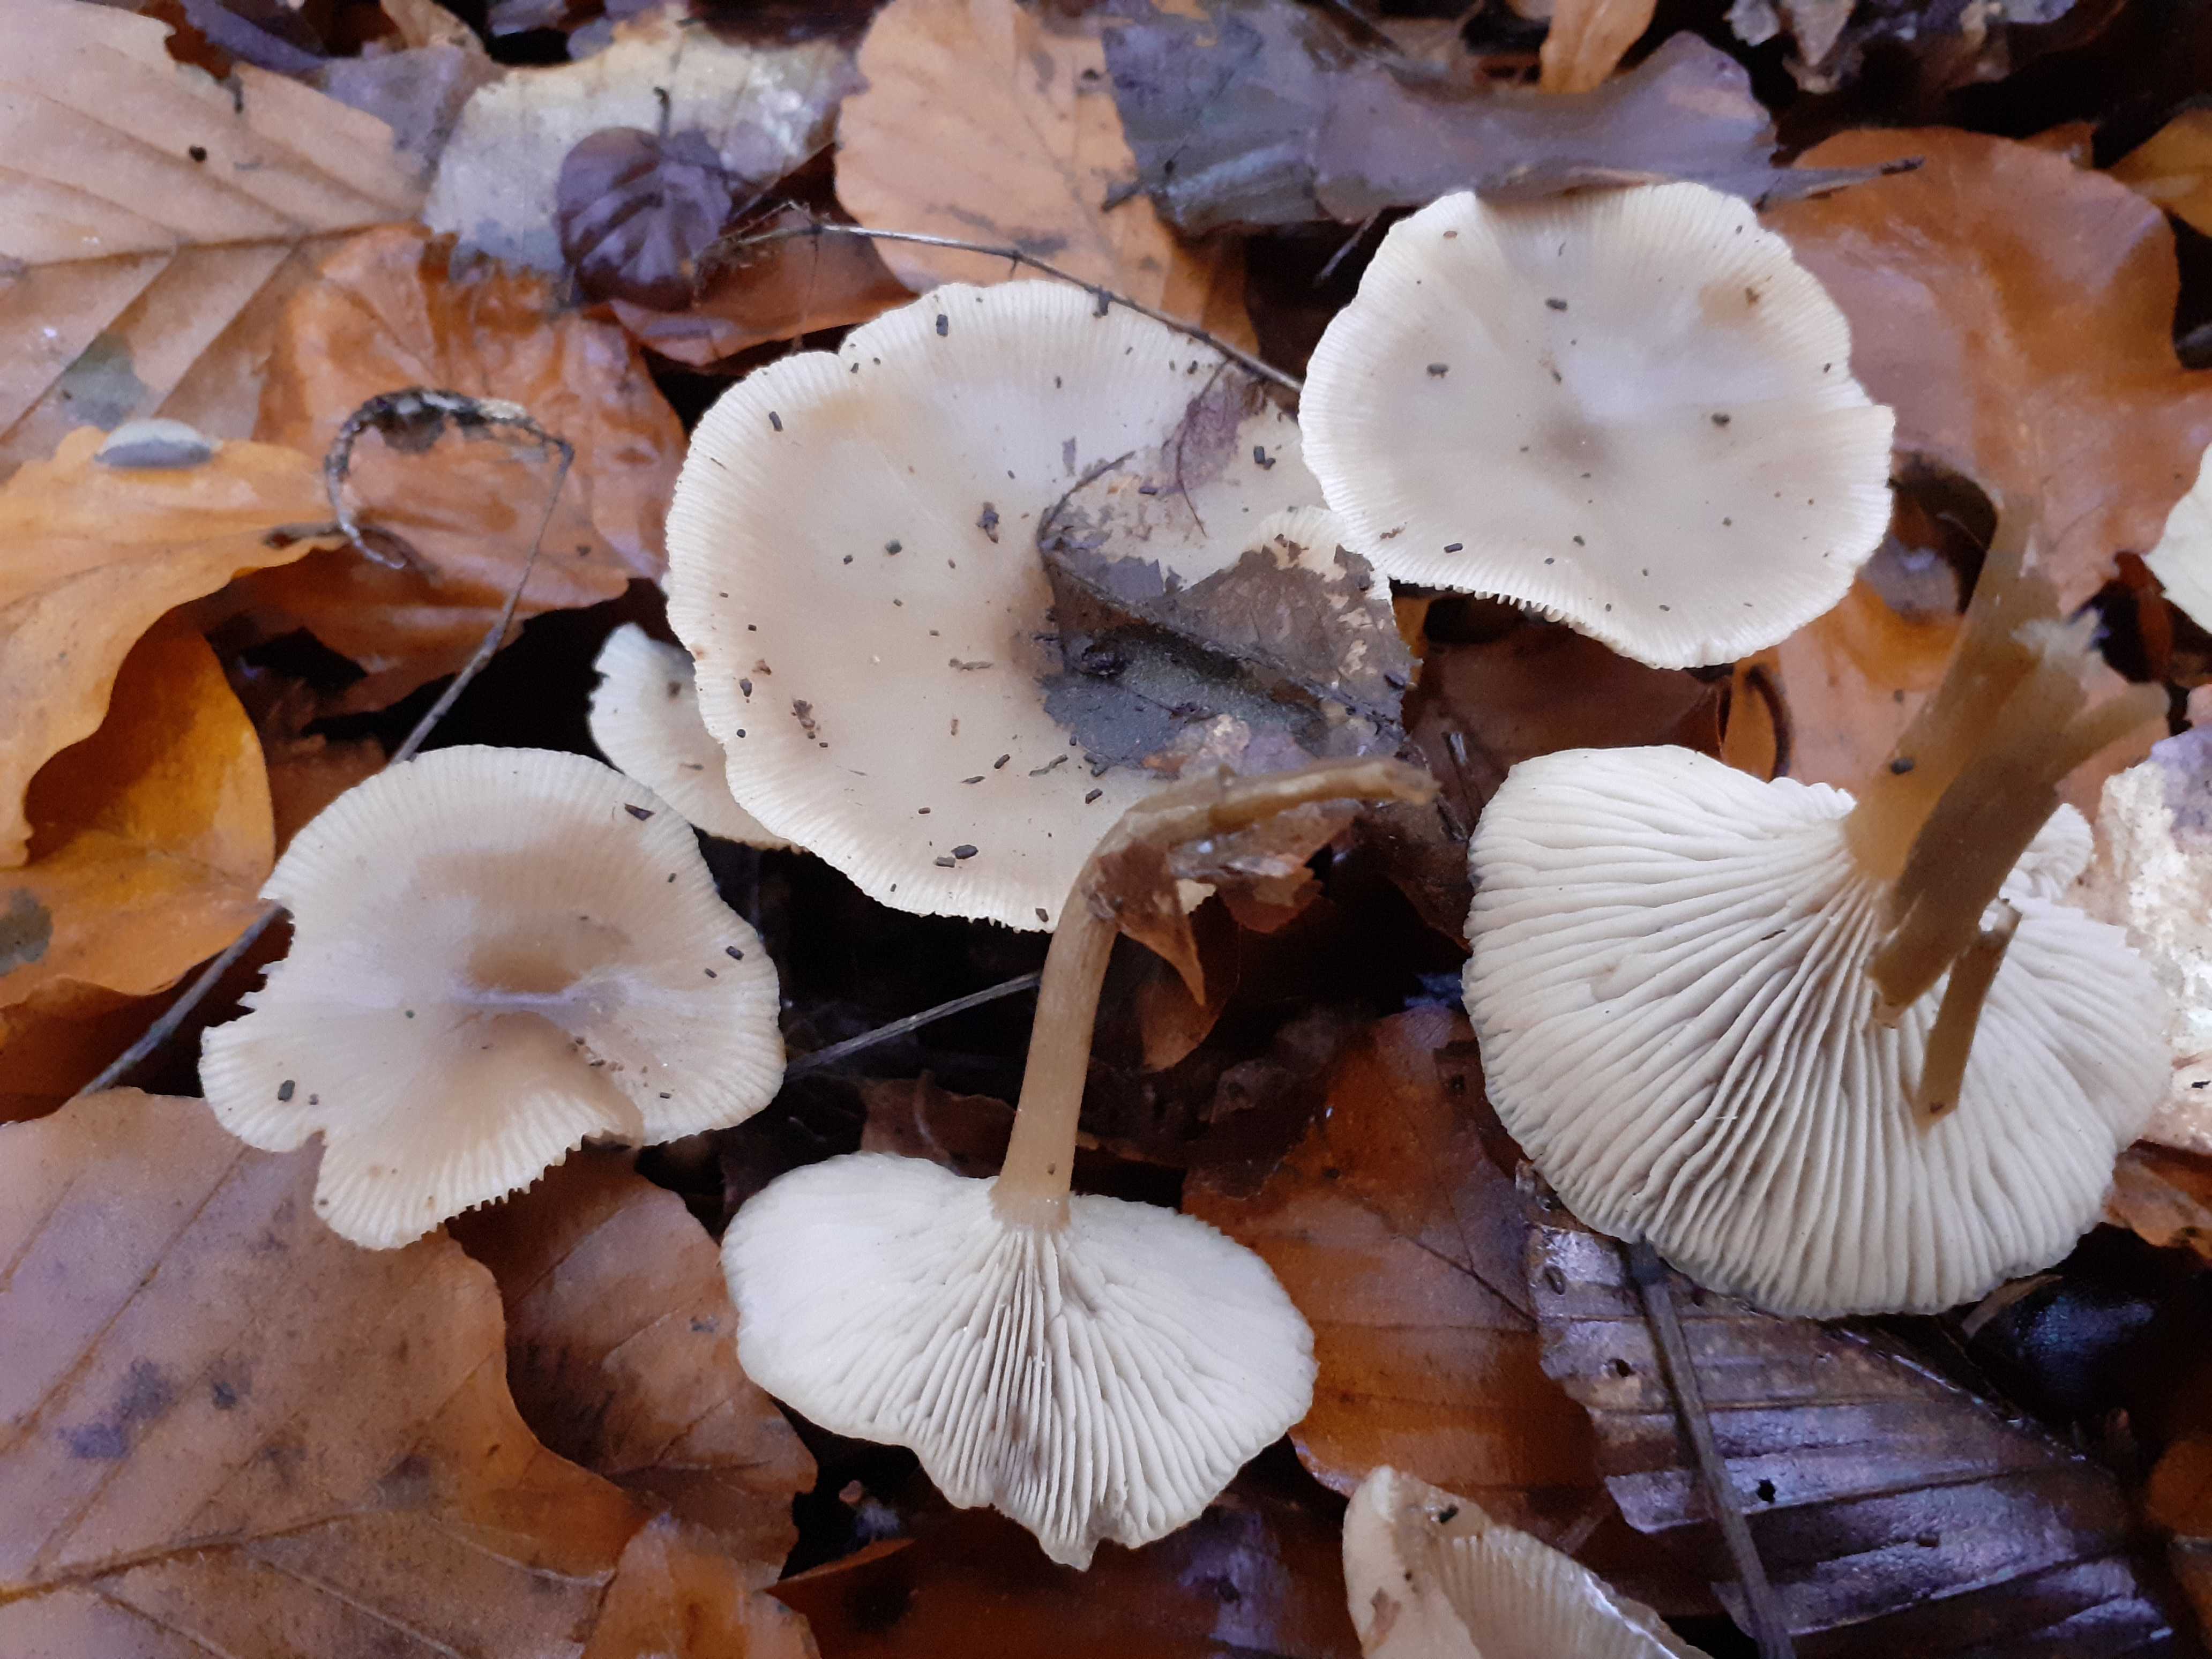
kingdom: Fungi
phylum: Basidiomycota
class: Agaricomycetes
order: Agaricales
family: Tricholomataceae
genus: Clitocybe
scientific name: Clitocybe metachroa
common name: grå tragthat
